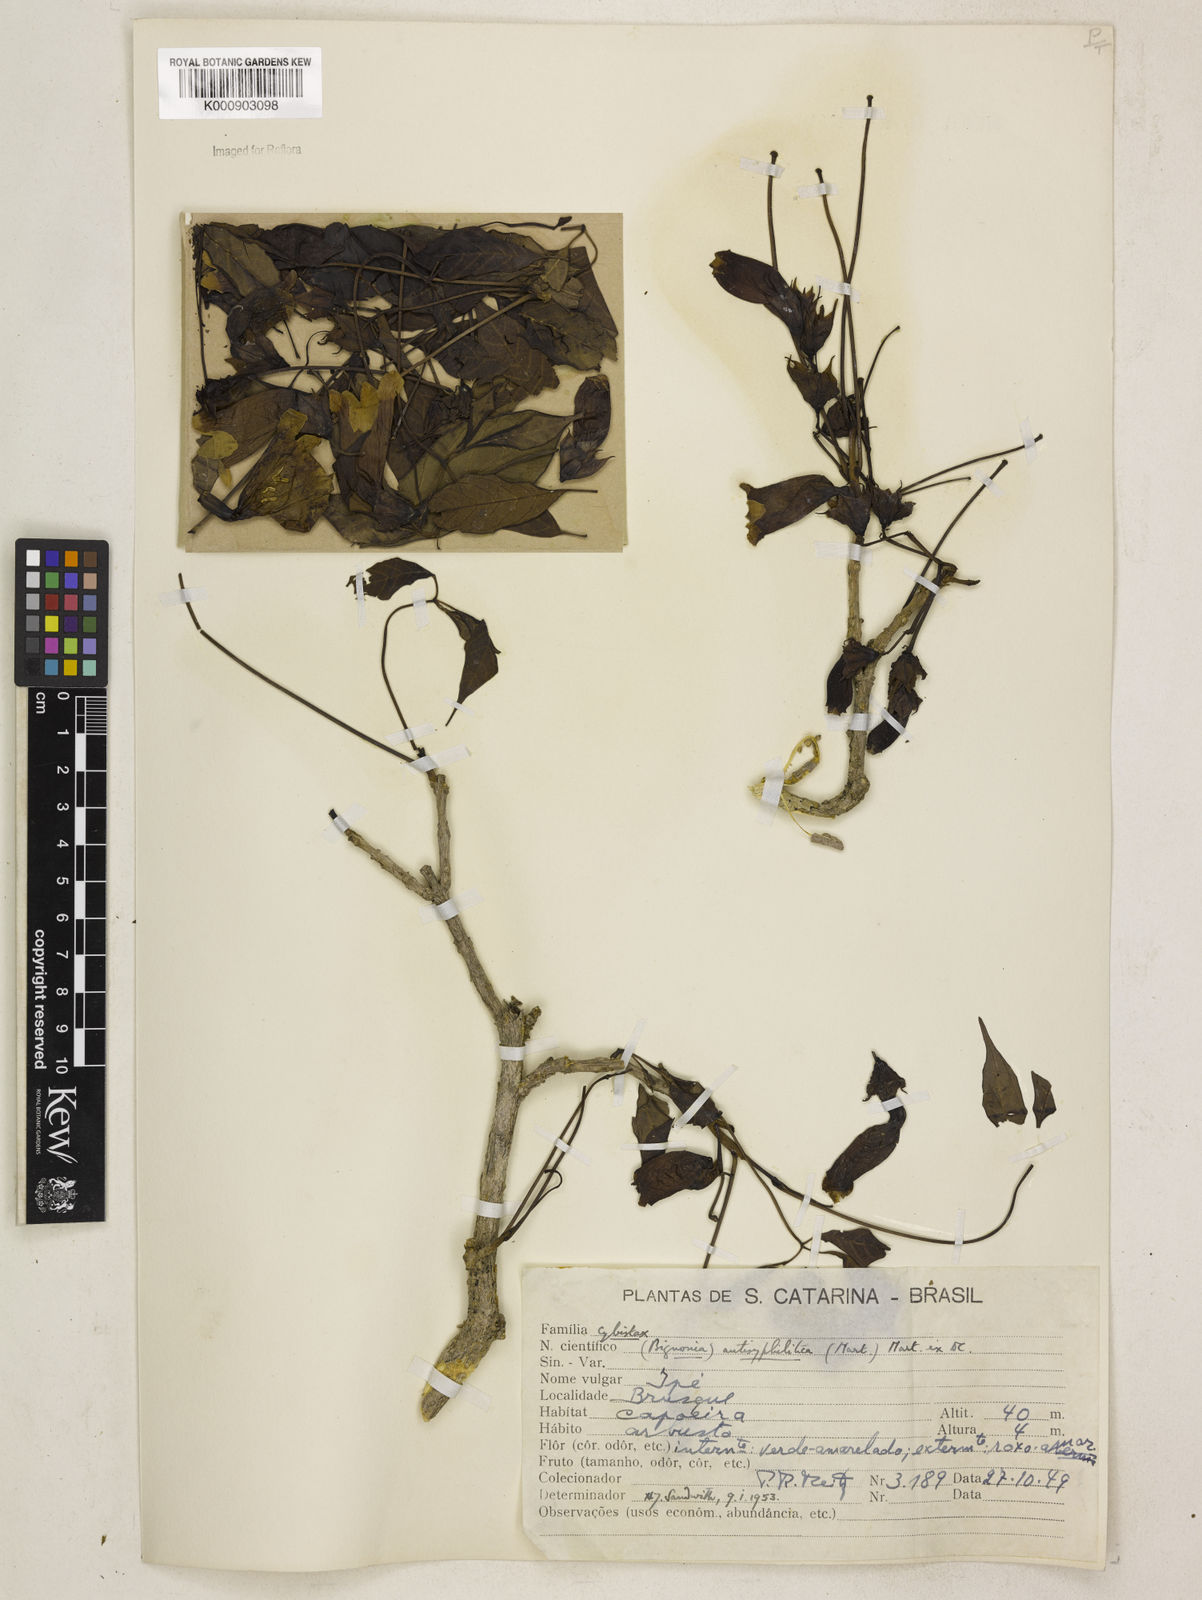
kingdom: Plantae
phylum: Tracheophyta
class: Magnoliopsida
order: Lamiales
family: Bignoniaceae
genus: Cybistax
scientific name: Cybistax antisyphilitica
